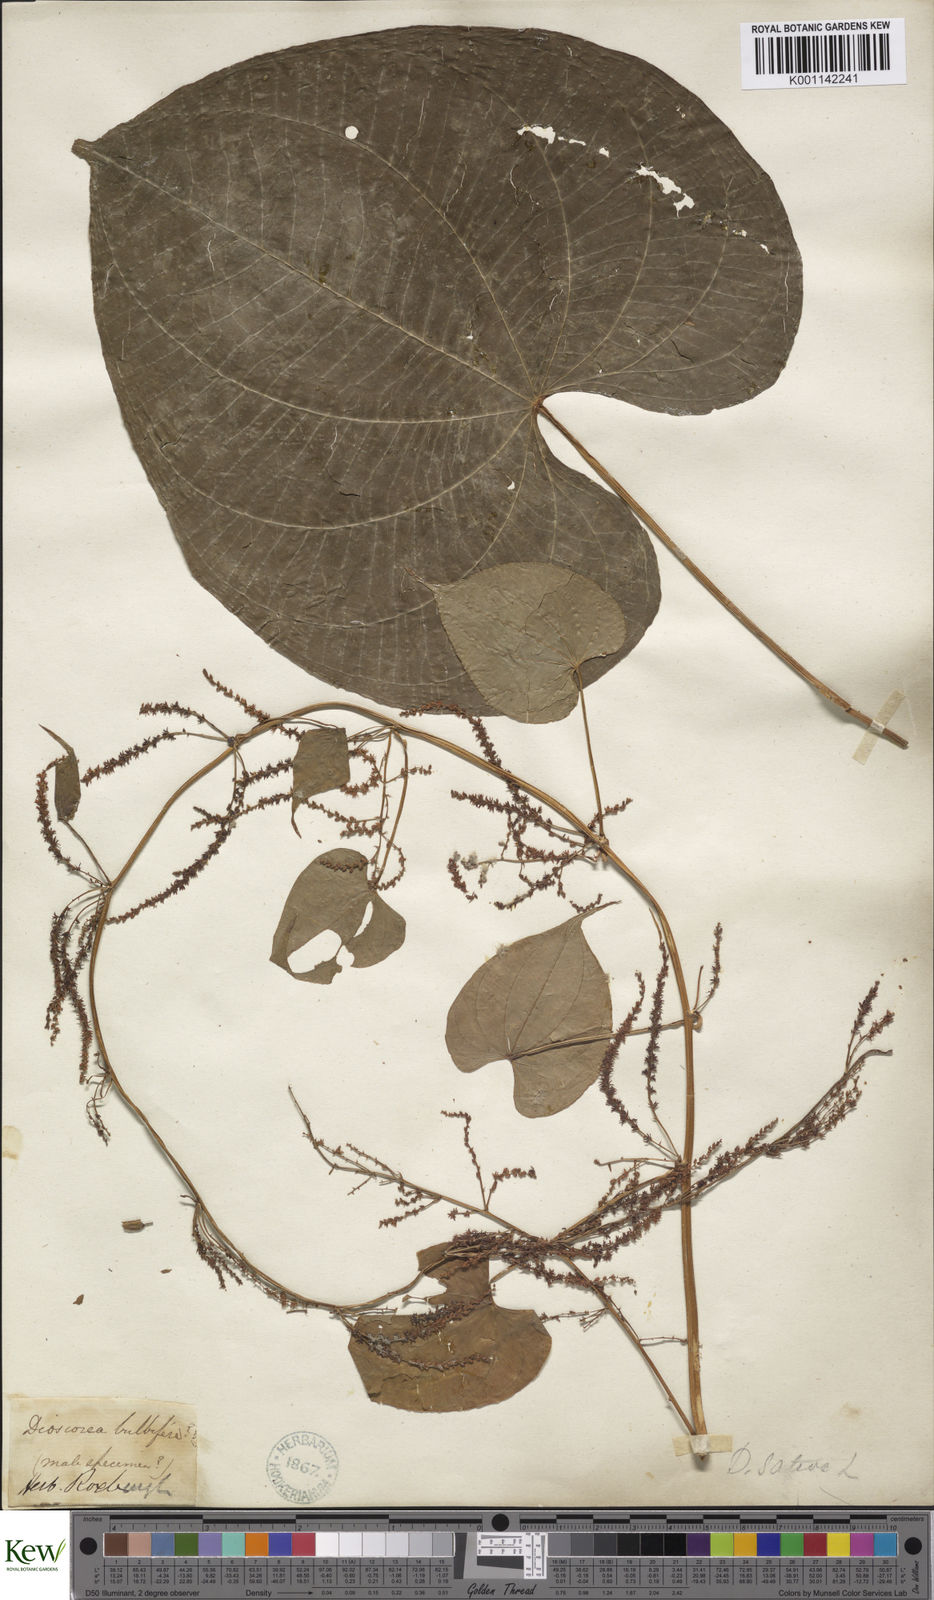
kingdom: Plantae
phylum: Tracheophyta
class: Liliopsida
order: Dioscoreales
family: Dioscoreaceae
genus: Dioscorea
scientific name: Dioscorea bulbifera
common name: Air yam
